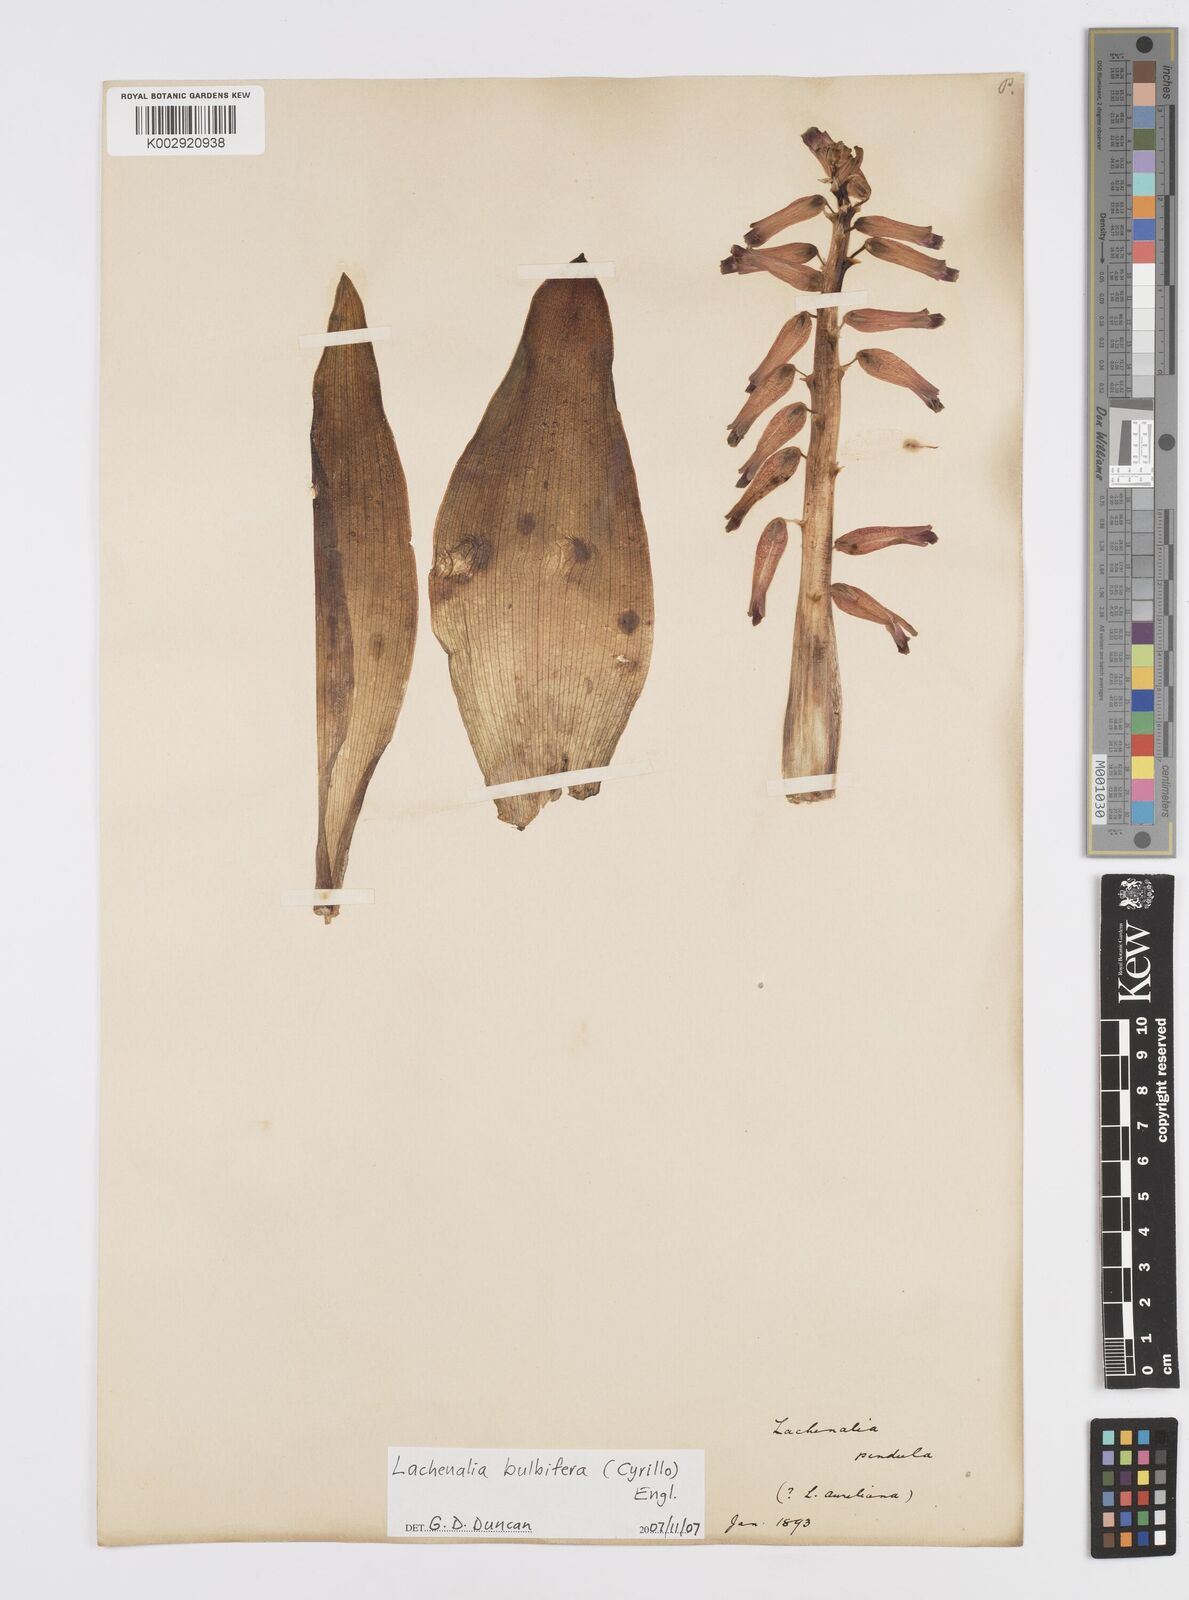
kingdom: Plantae
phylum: Tracheophyta
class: Liliopsida
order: Asparagales
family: Asparagaceae
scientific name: Asparagaceae
